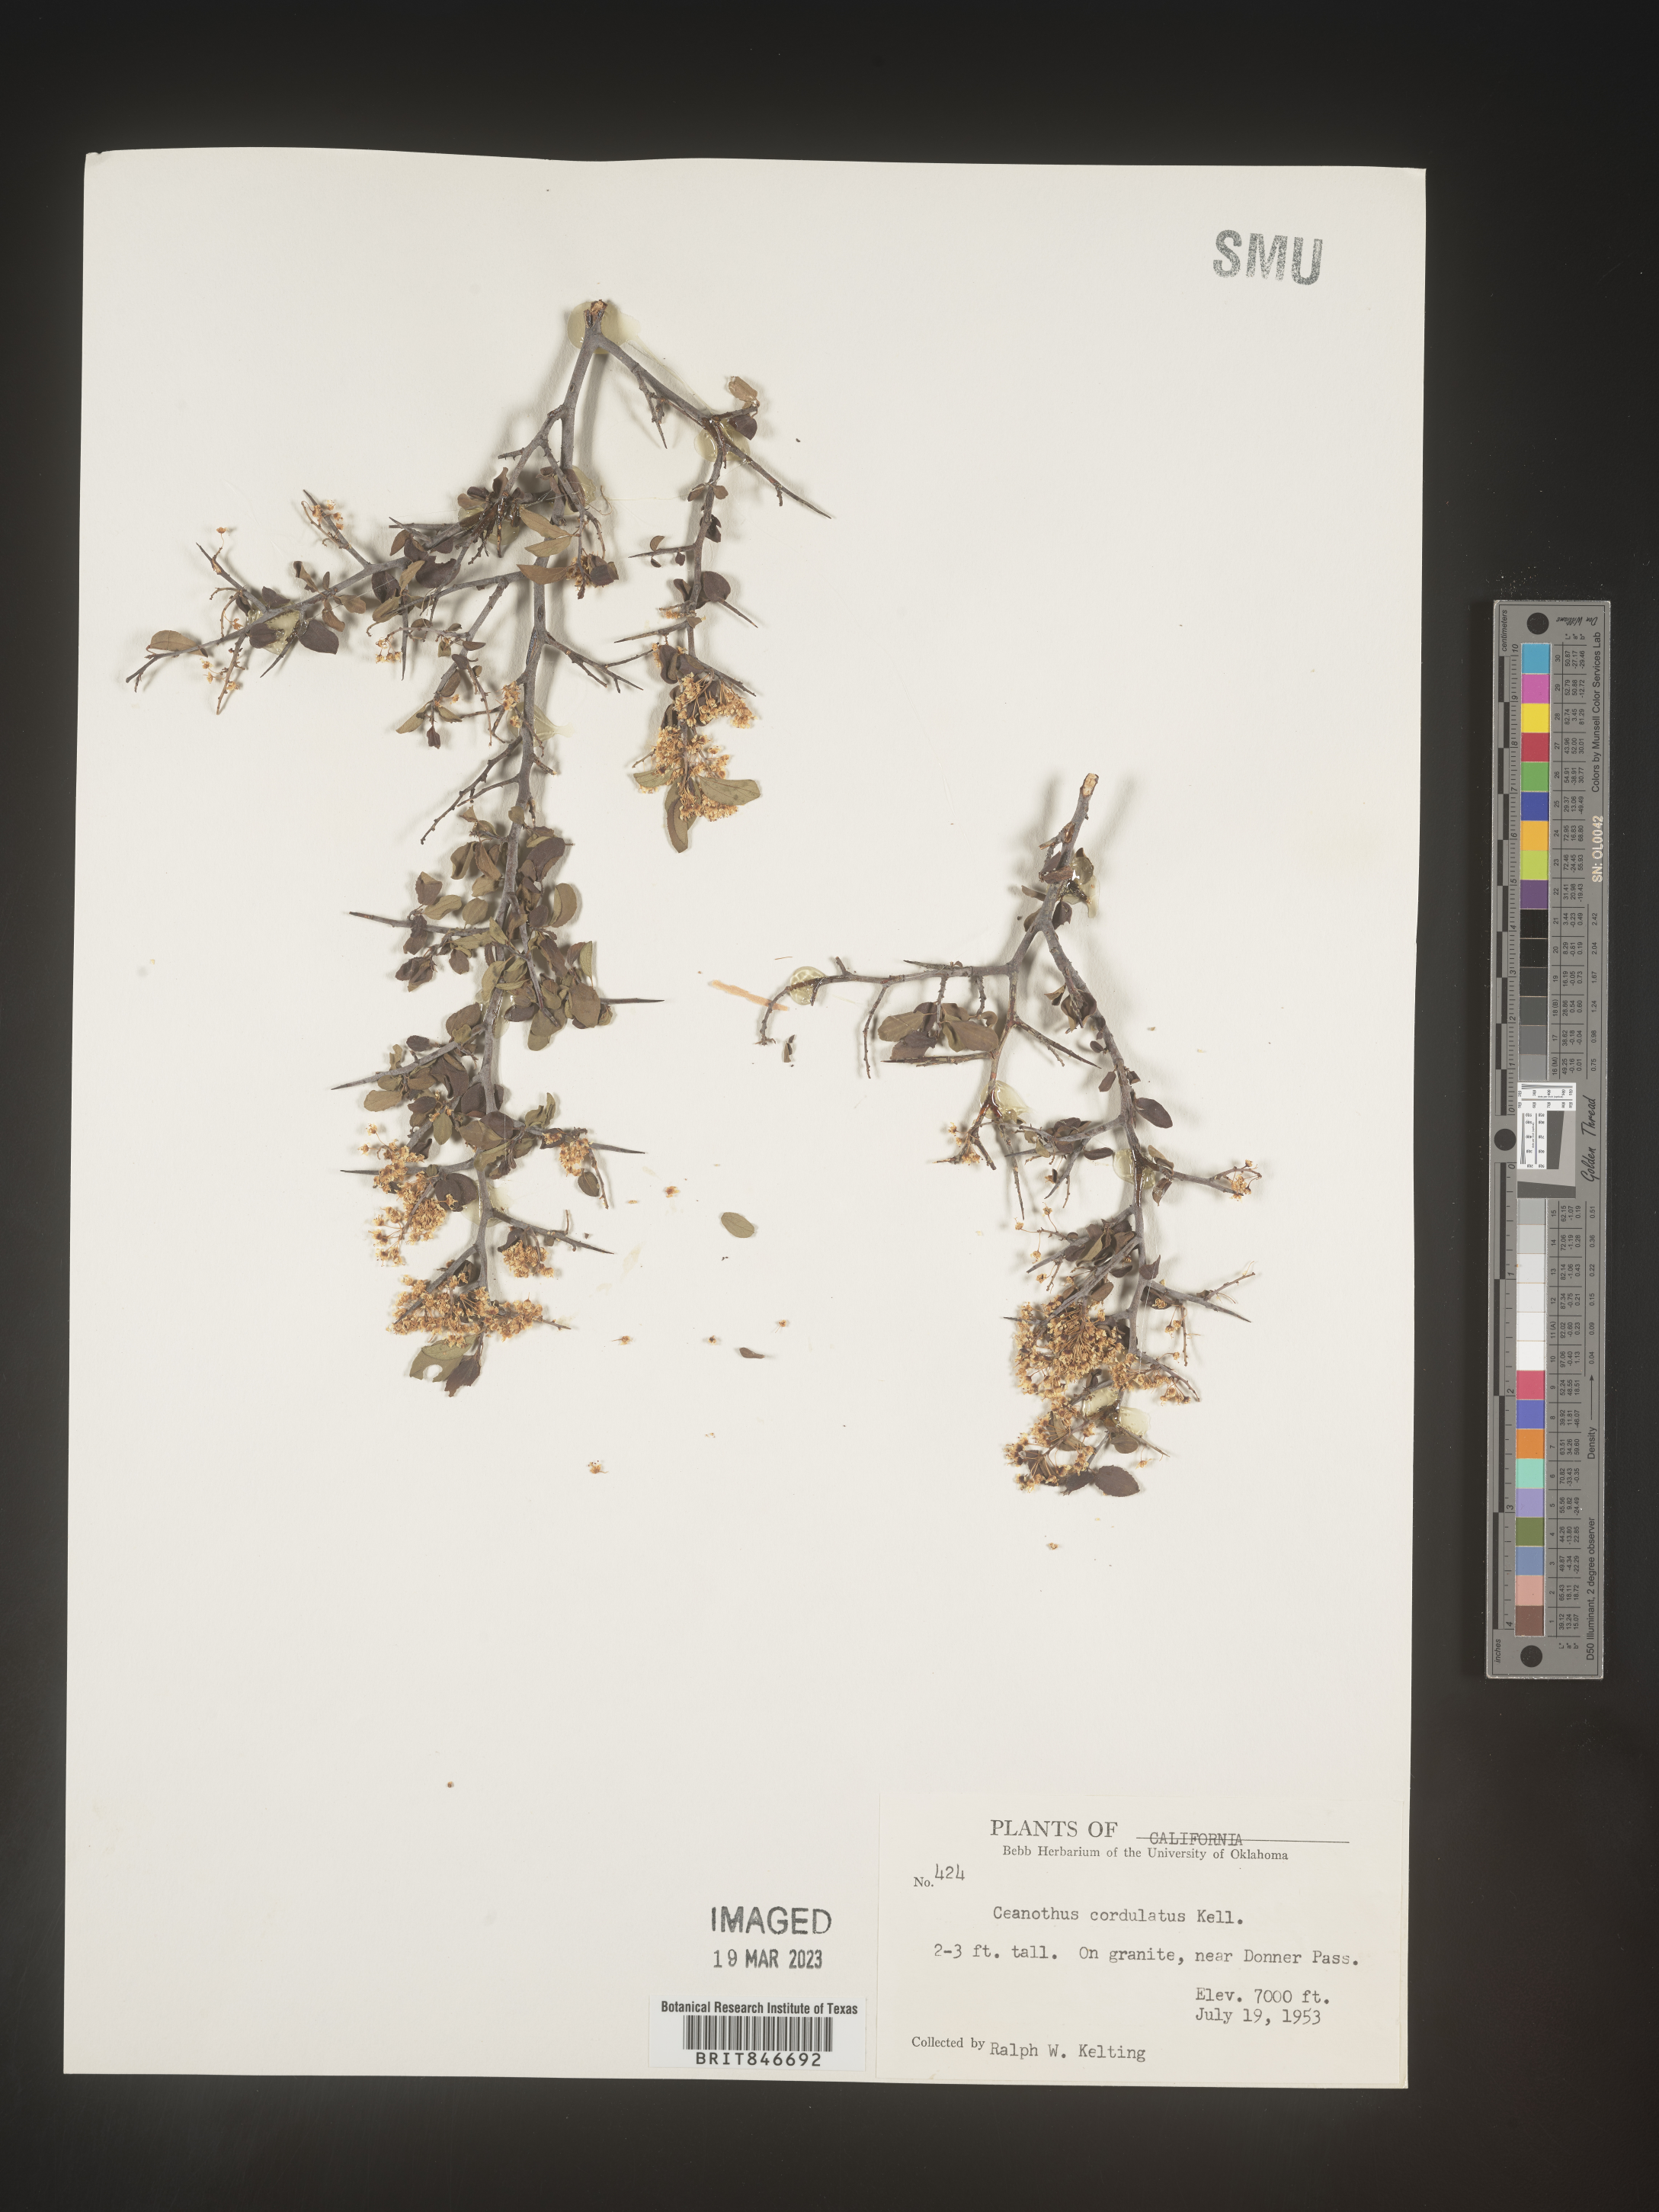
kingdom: Plantae
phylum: Tracheophyta
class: Magnoliopsida
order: Rosales
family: Rhamnaceae
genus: Ceanothus
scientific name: Ceanothus
